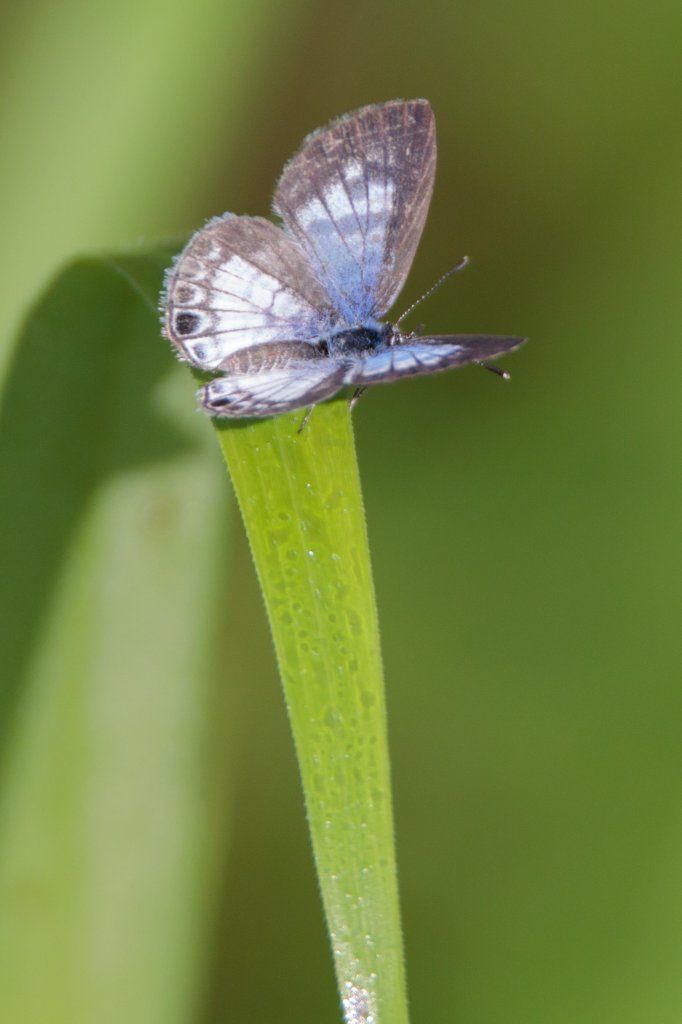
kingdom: Animalia
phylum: Arthropoda
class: Insecta
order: Lepidoptera
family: Lycaenidae
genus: Leptotes
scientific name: Leptotes cassius
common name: Cassius Blue
